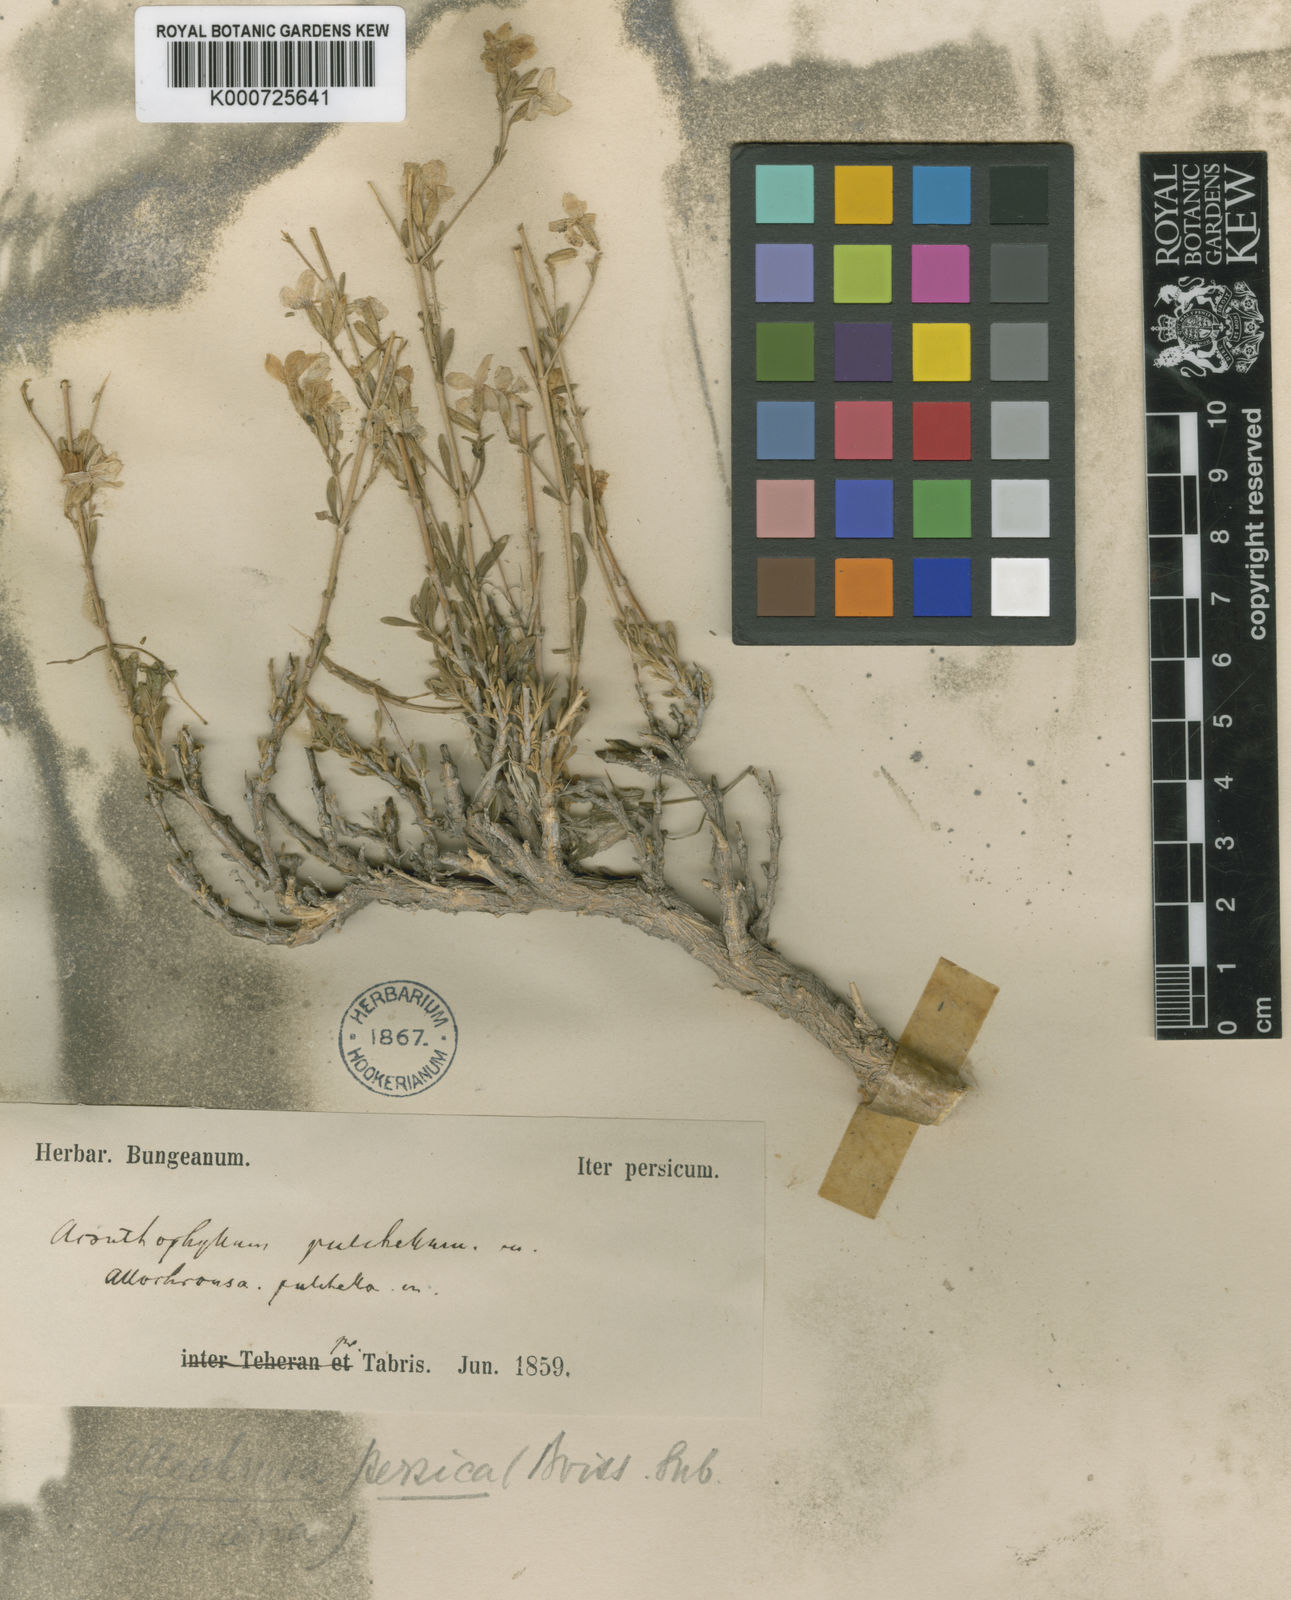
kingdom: Plantae
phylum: Tracheophyta
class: Magnoliopsida
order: Caryophyllales
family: Caryophyllaceae
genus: Acanthophyllum
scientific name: Acanthophyllum persicum
